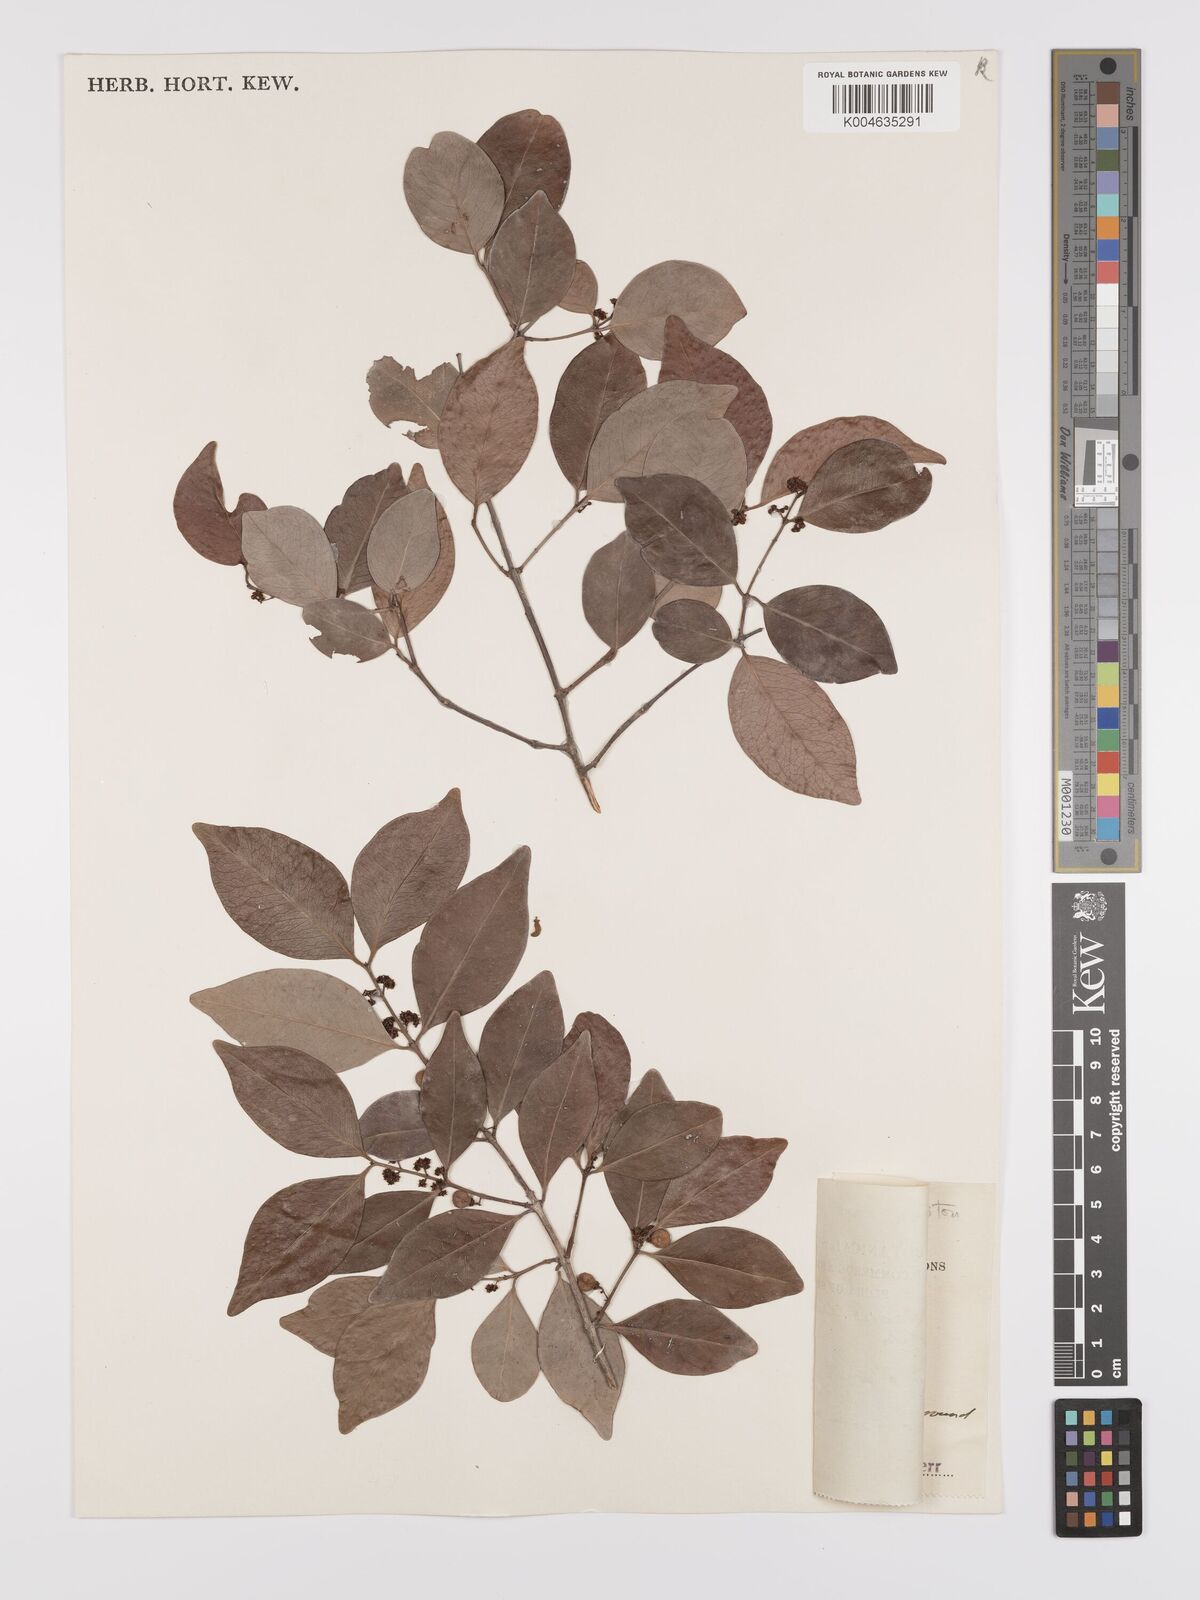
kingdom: Plantae
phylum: Tracheophyta
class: Magnoliopsida
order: Celastrales
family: Celastraceae
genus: Pleurostylia
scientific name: Pleurostylia opposita
